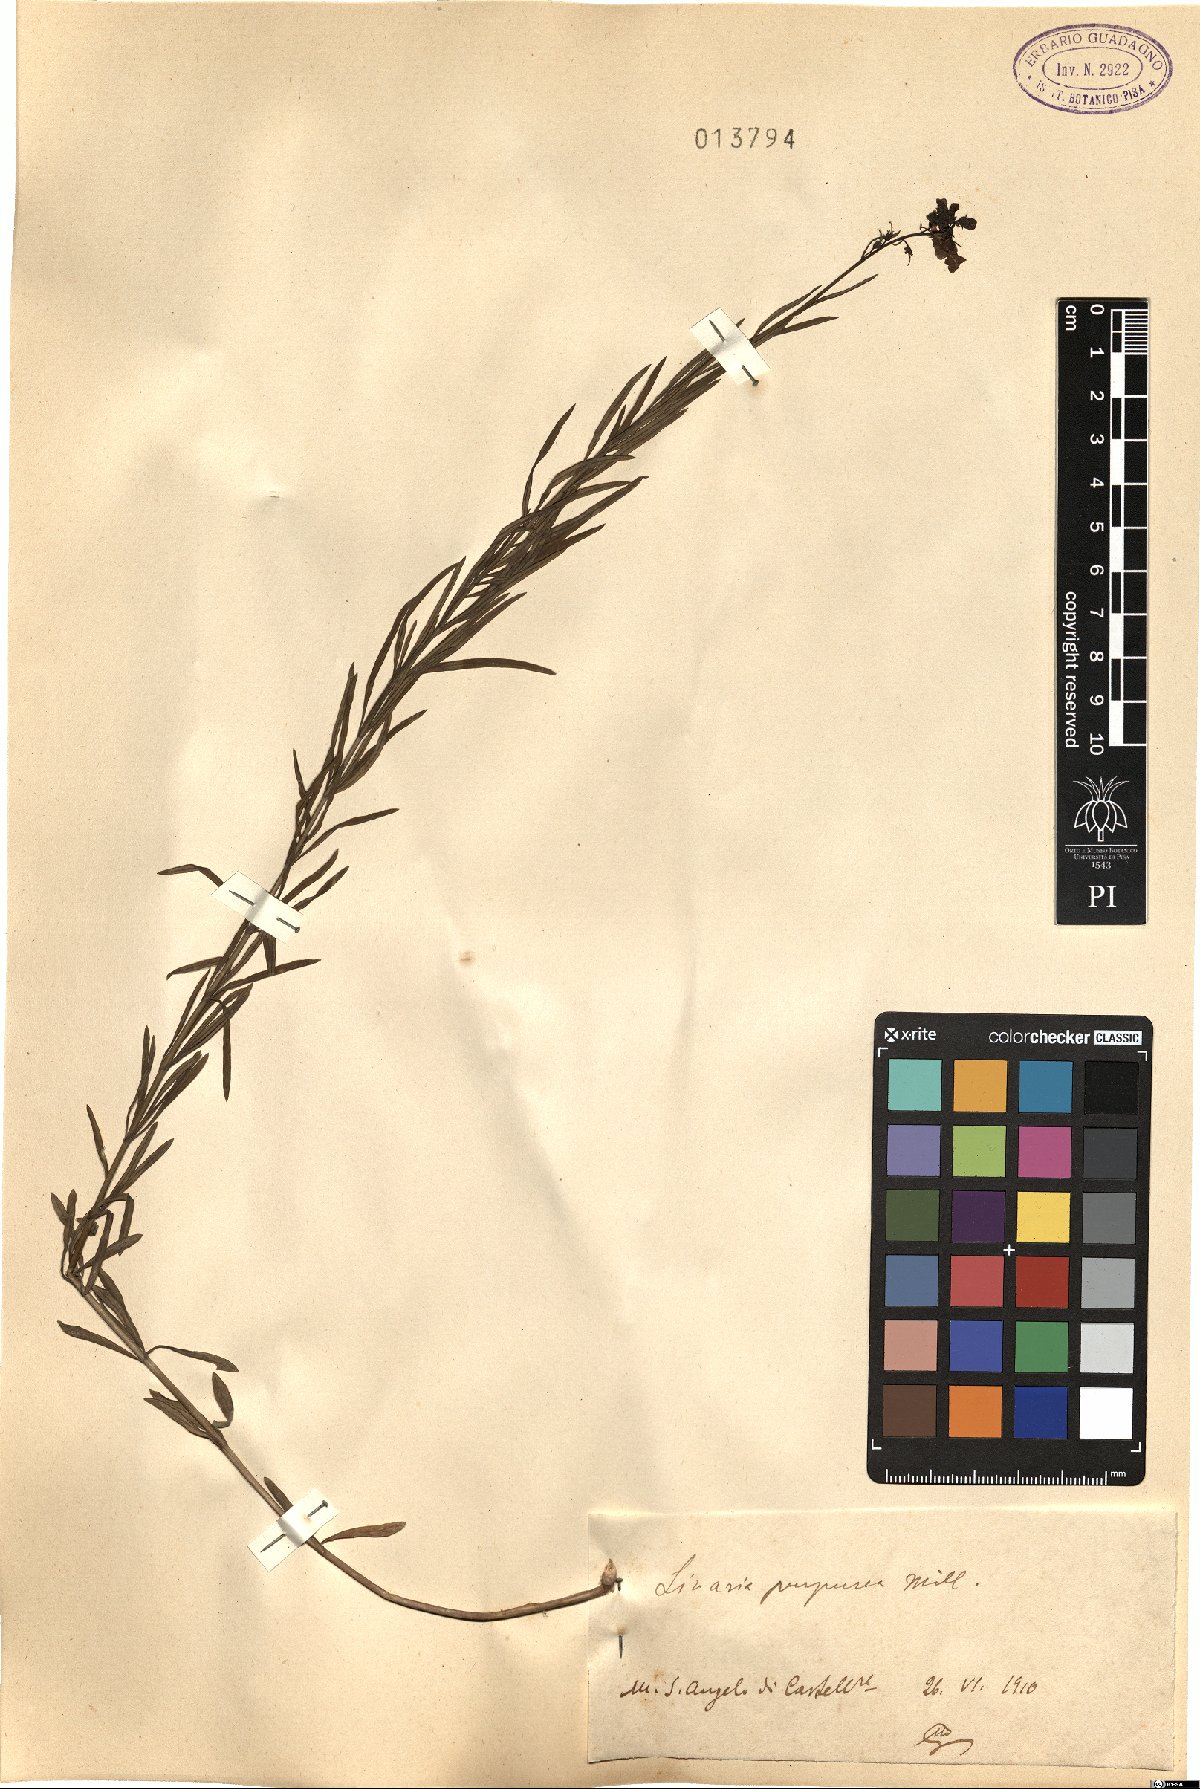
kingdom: Plantae
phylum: Tracheophyta
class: Magnoliopsida
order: Lamiales
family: Plantaginaceae
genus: Linaria
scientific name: Linaria purpurea
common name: Purple toadflax
